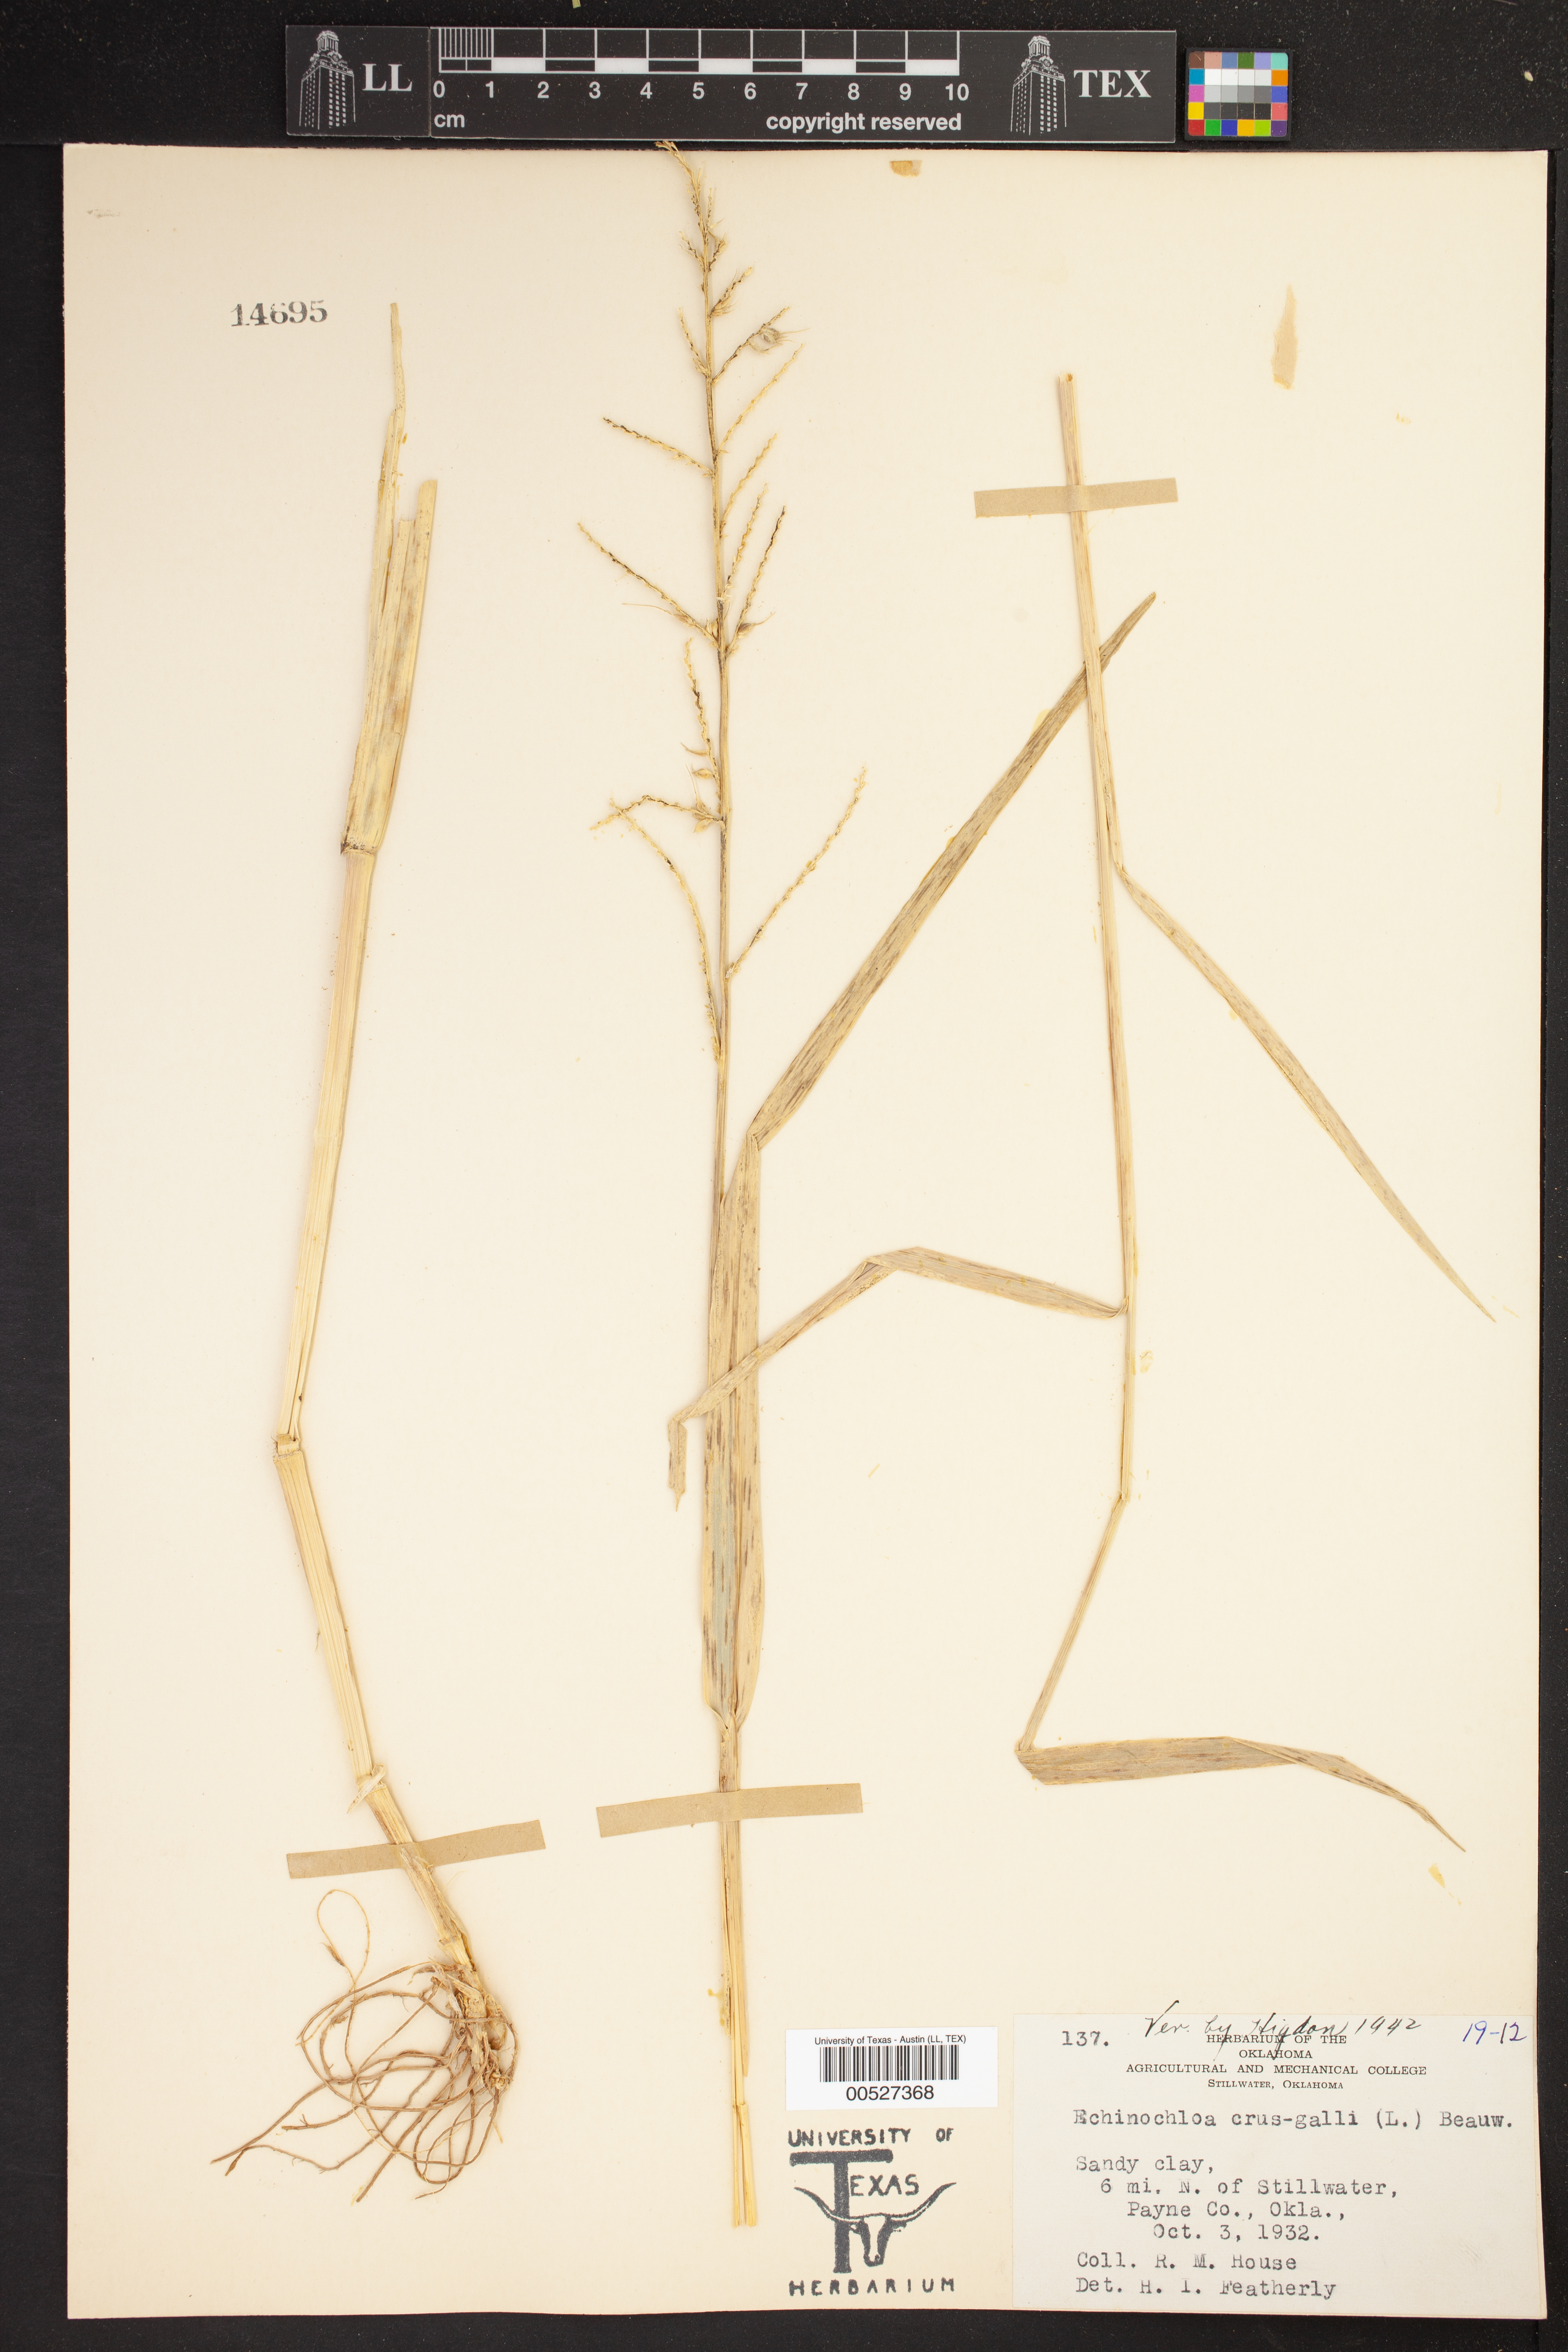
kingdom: Plantae
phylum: Tracheophyta
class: Liliopsida
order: Poales
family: Poaceae
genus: Echinochloa
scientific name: Echinochloa crus-galli
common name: Cockspur
